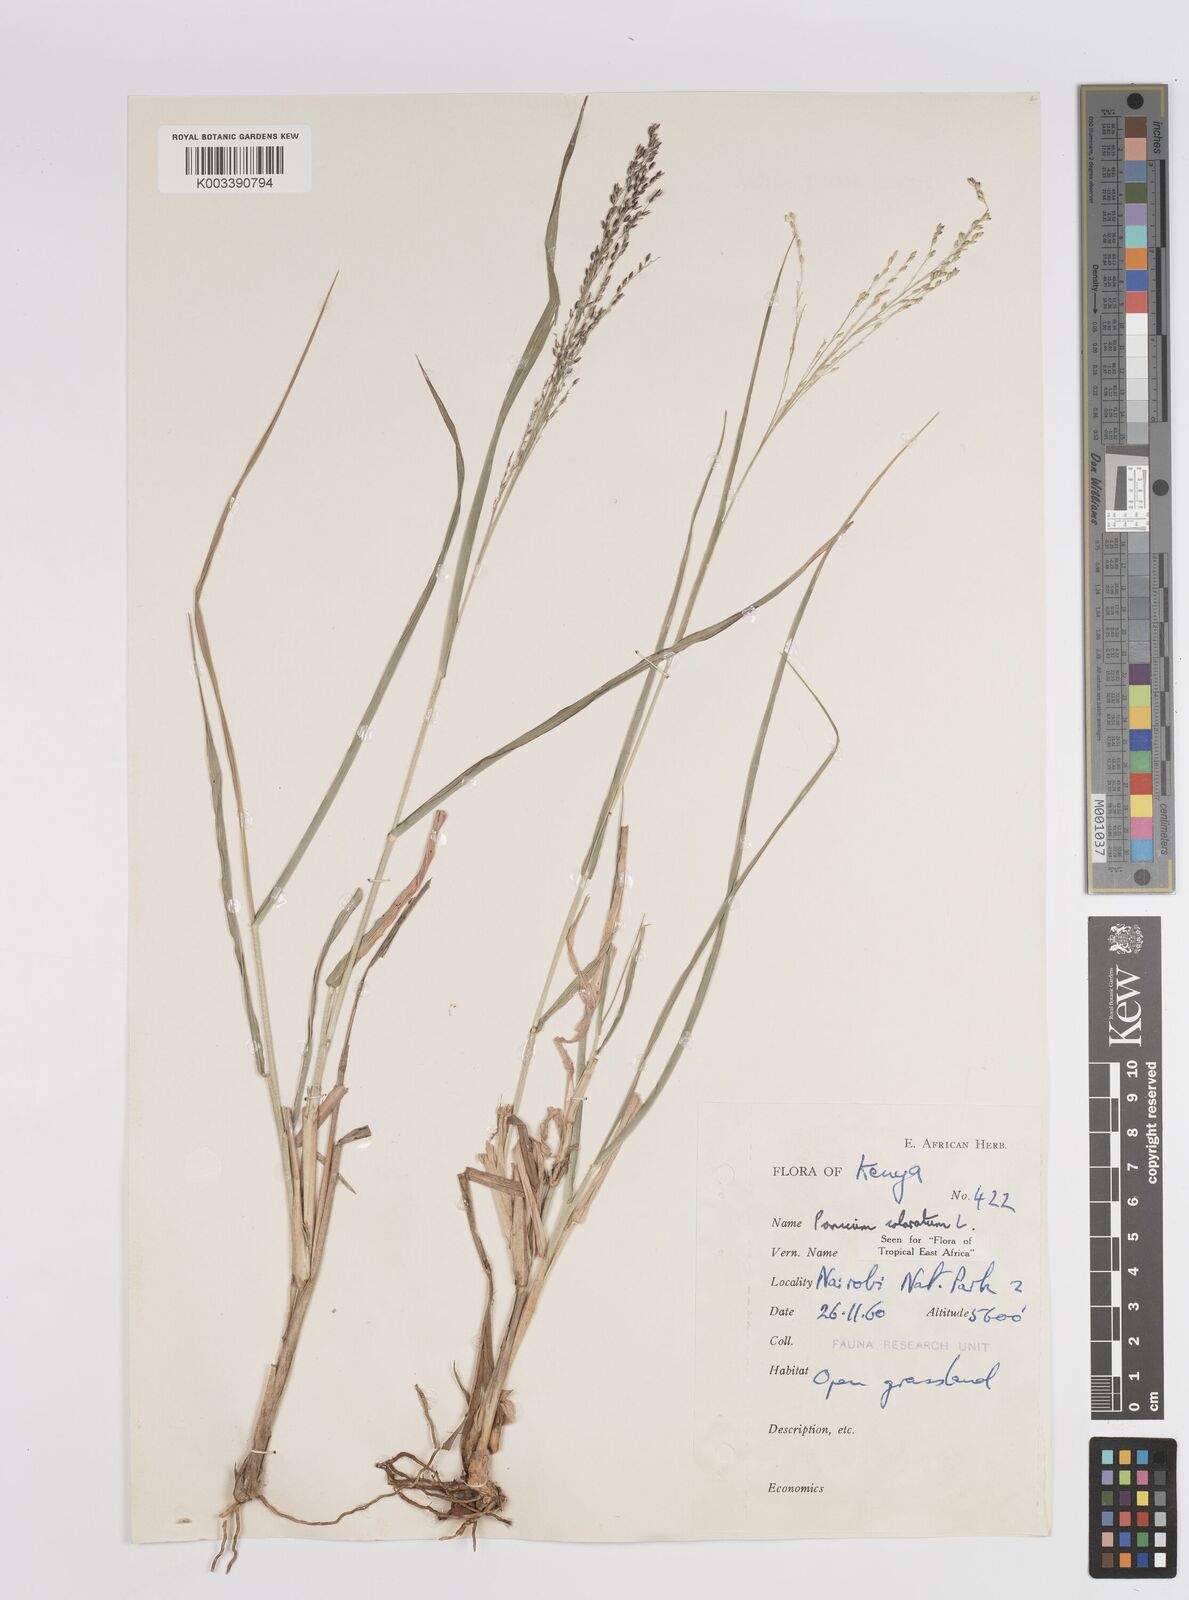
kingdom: Plantae
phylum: Tracheophyta
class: Liliopsida
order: Poales
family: Poaceae
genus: Panicum
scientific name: Panicum coloratum
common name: Kleingrass
